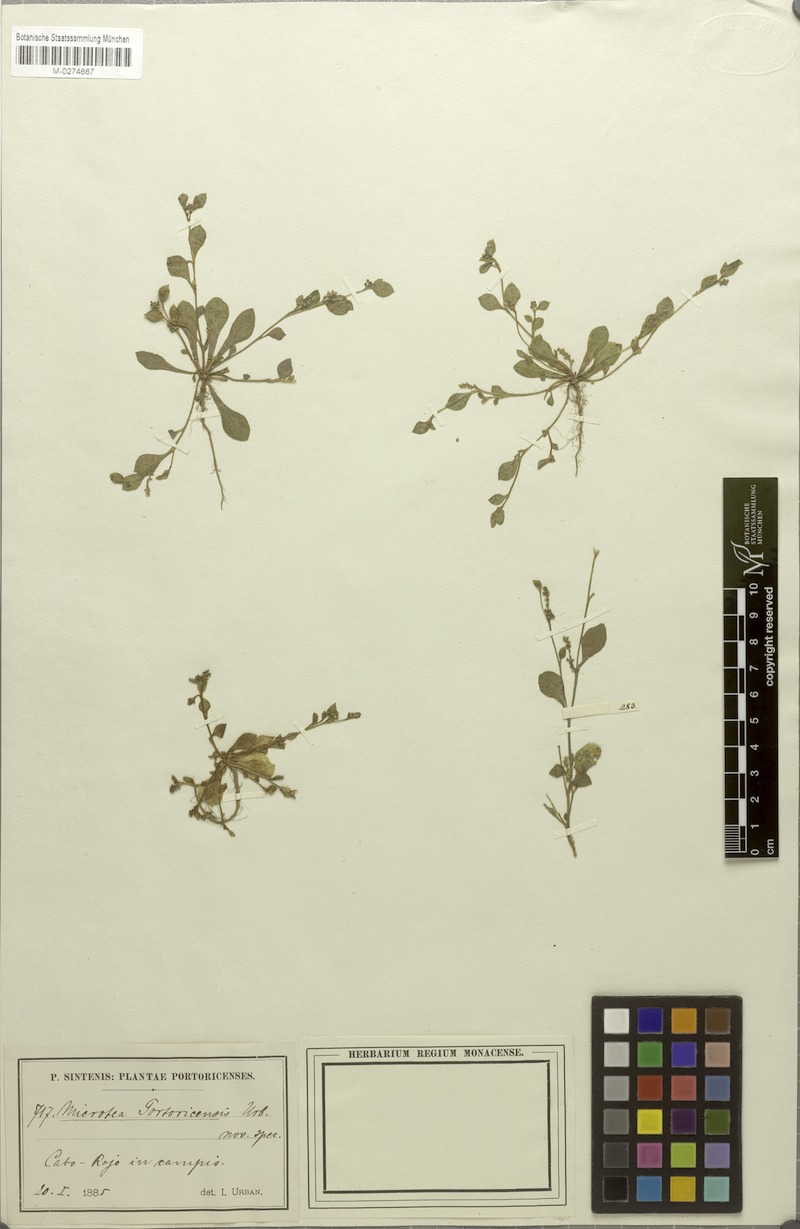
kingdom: Plantae
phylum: Tracheophyta
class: Magnoliopsida
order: Caryophyllales
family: Microteaceae
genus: Microtea
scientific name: Microtea portoricensis
